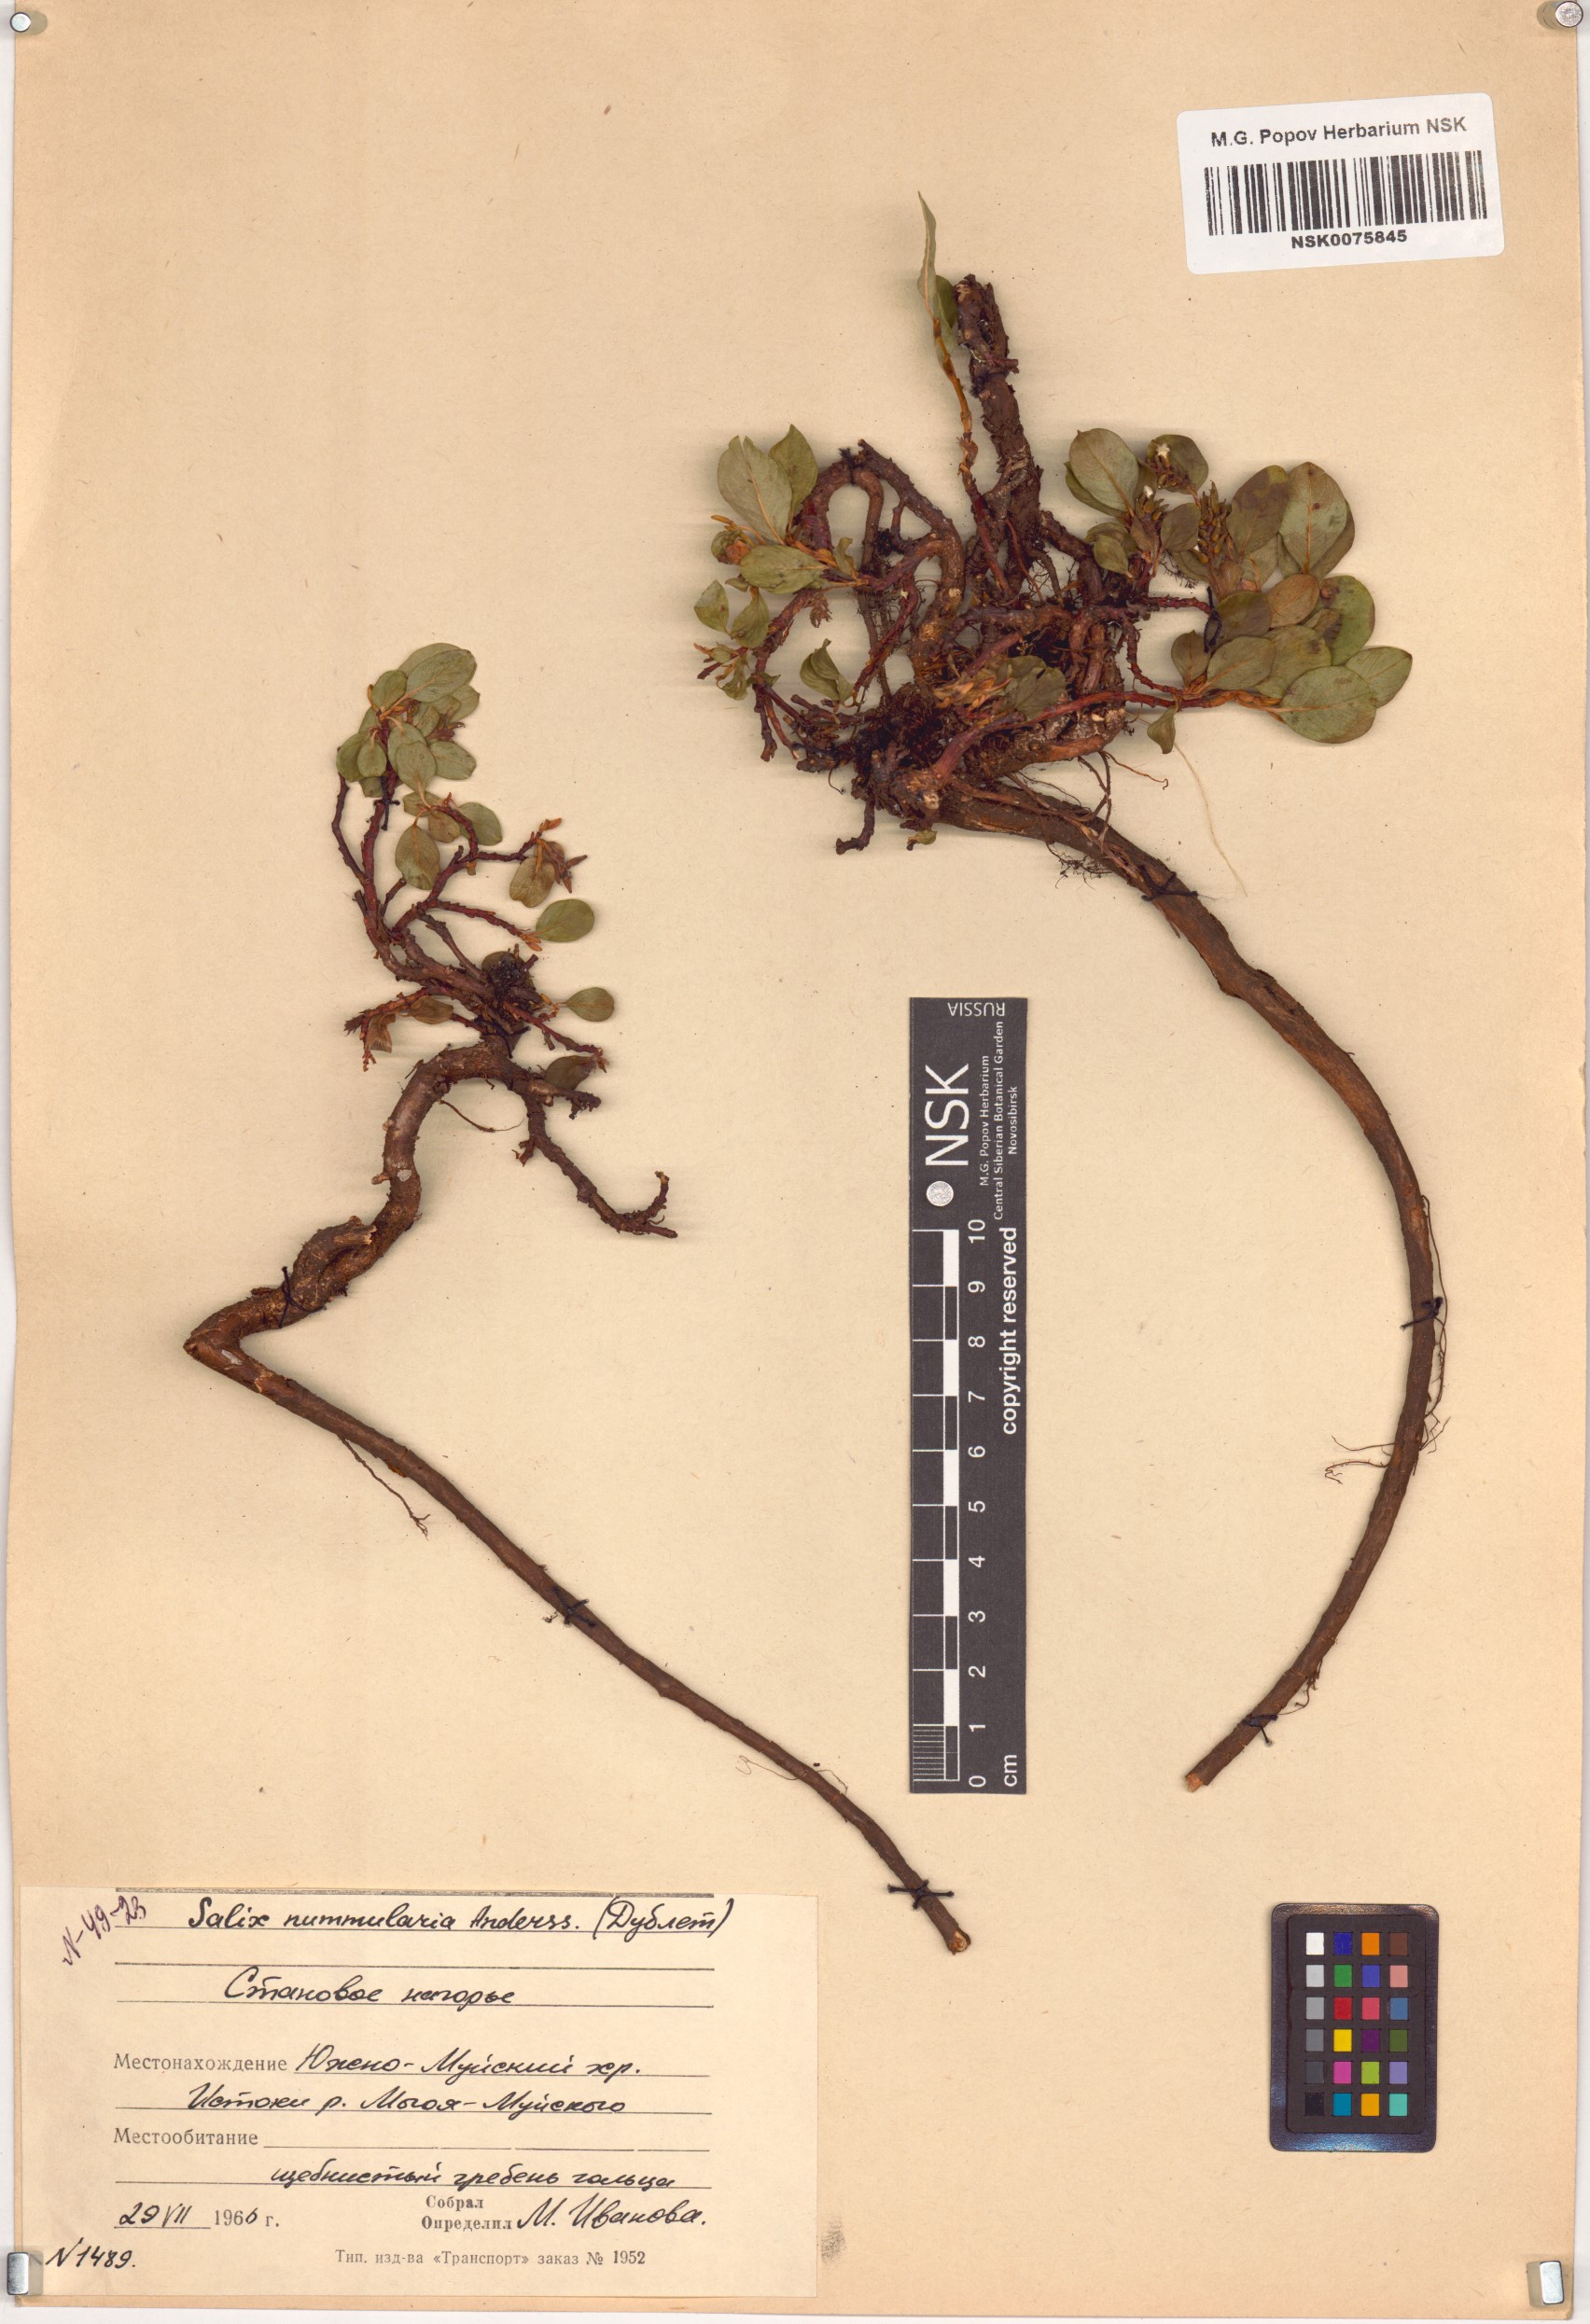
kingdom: Plantae
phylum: Tracheophyta
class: Magnoliopsida
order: Malpighiales
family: Salicaceae
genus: Salix
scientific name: Salix nummularia
